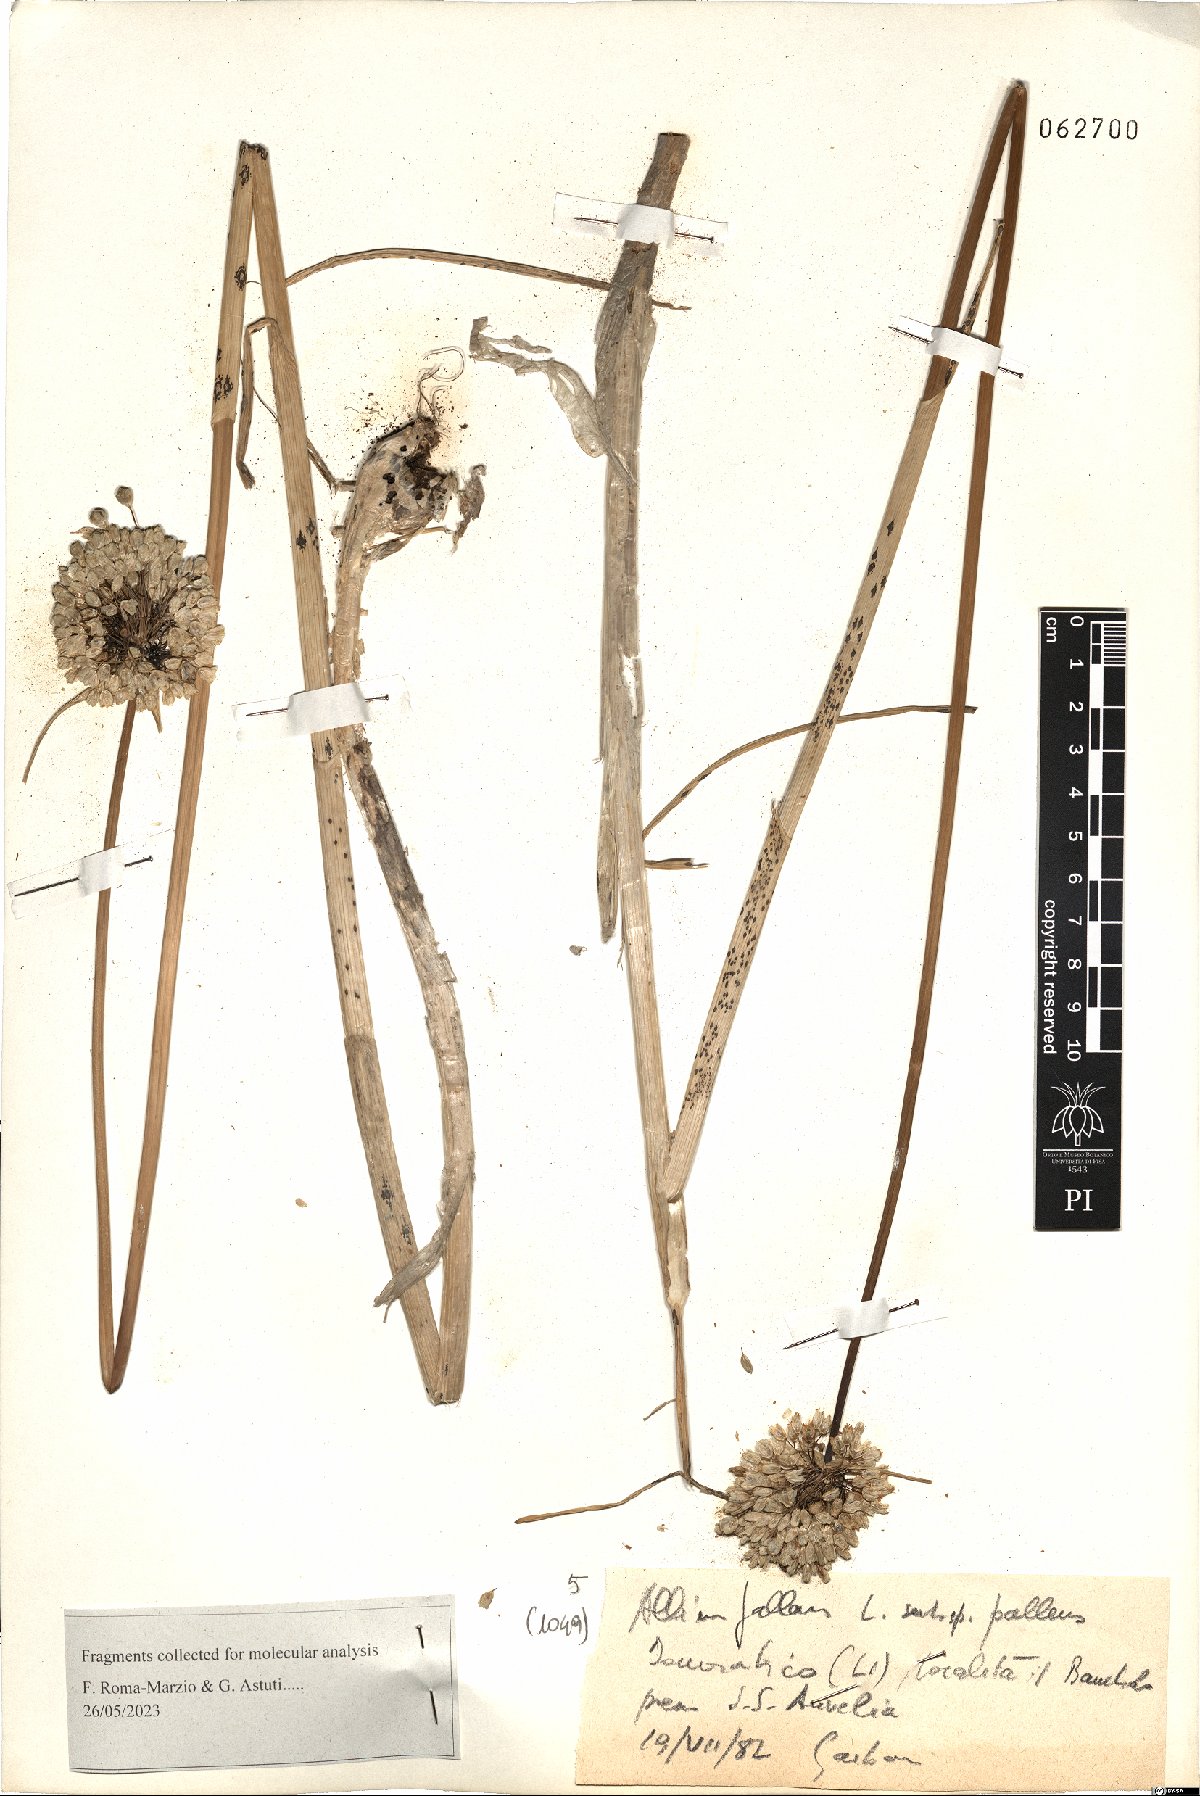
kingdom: Plantae
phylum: Tracheophyta
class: Liliopsida
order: Asparagales
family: Amaryllidaceae
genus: Allium
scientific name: Allium pallens
